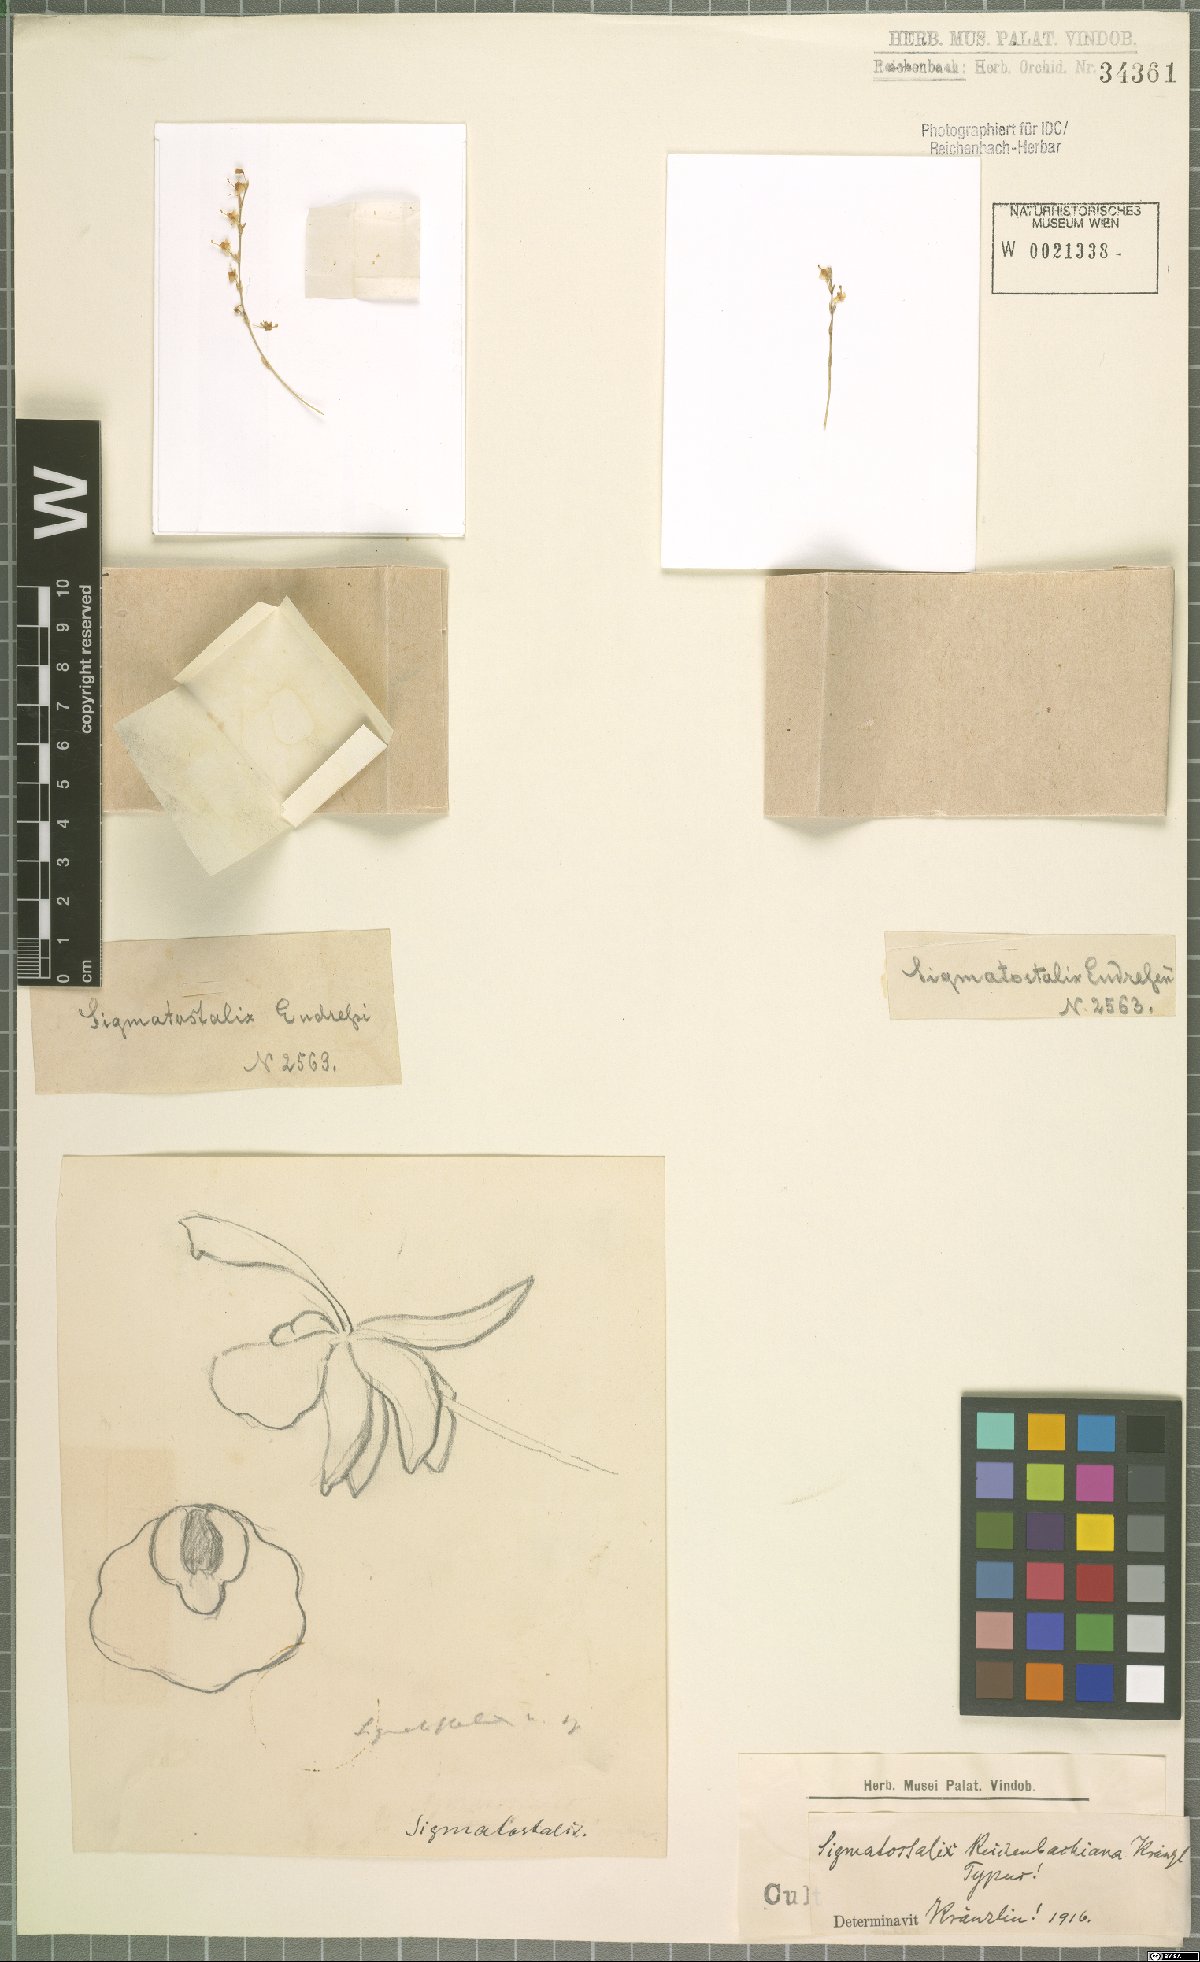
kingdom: Plantae
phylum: Tracheophyta
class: Liliopsida
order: Asparagales
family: Orchidaceae
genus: Oncidium
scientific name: Oncidium macrobulbon
